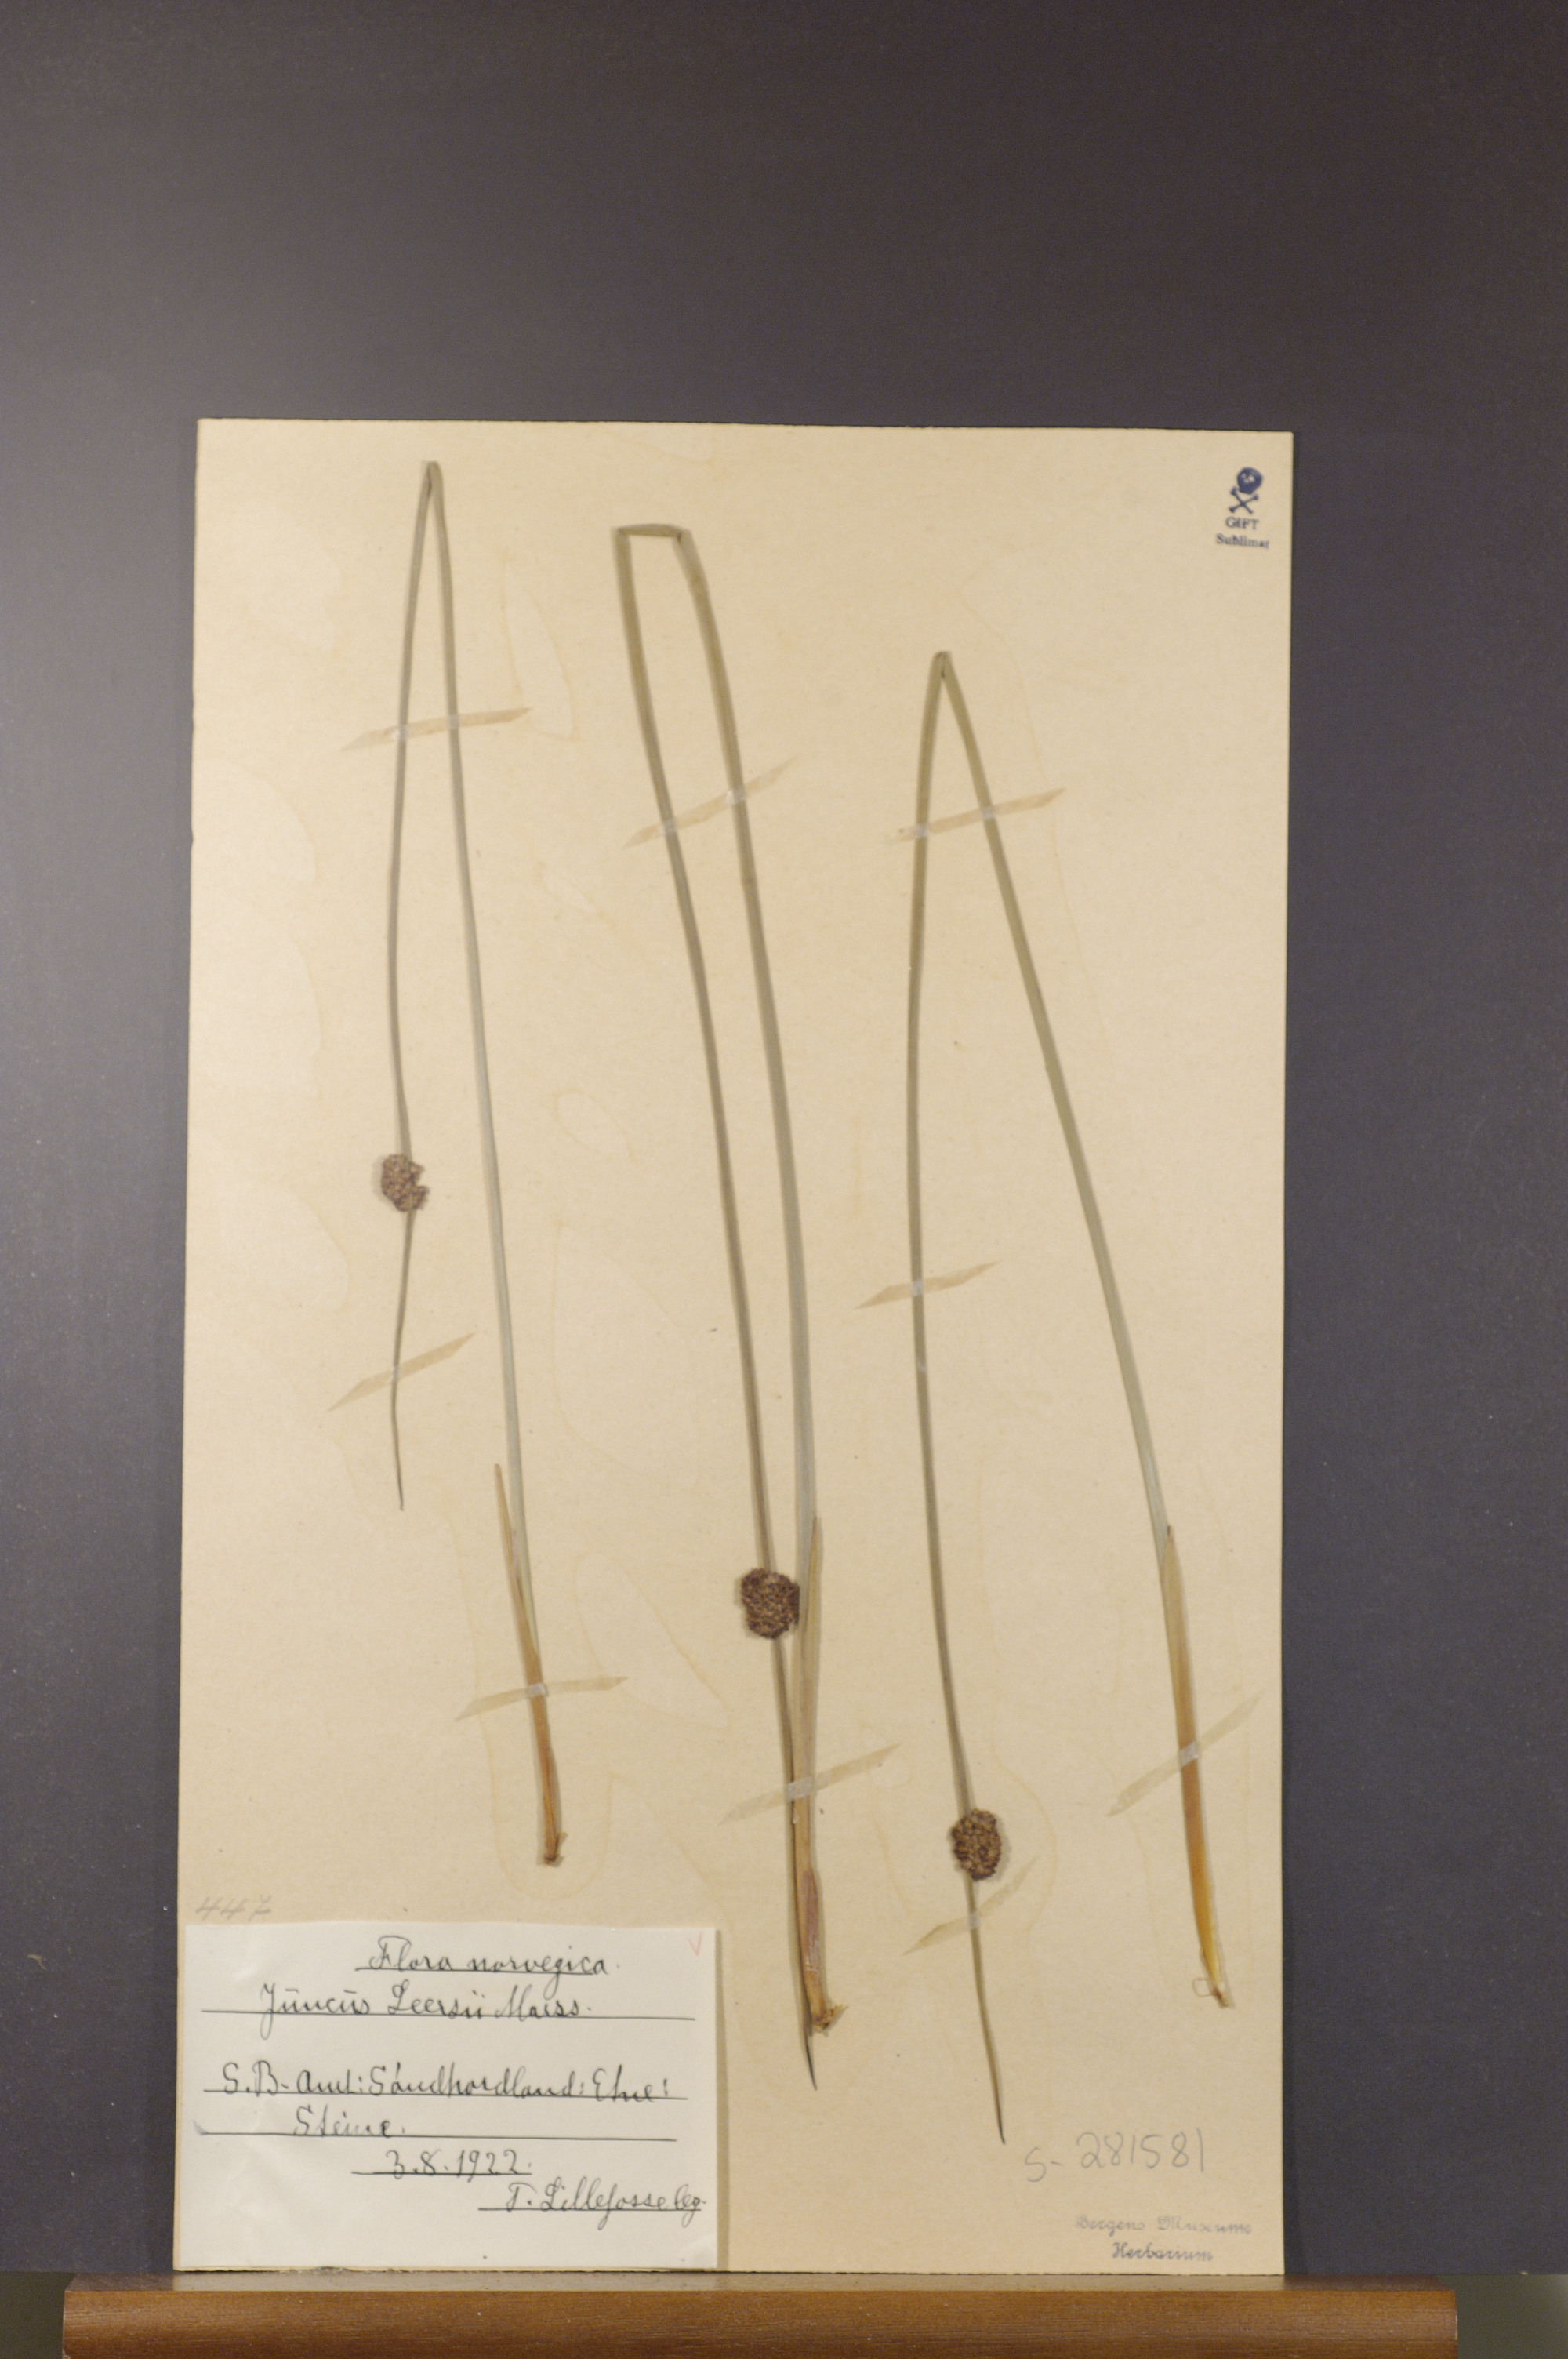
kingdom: Plantae
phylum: Tracheophyta
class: Liliopsida
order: Poales
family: Juncaceae
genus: Juncus
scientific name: Juncus conglomeratus
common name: Compact rush
